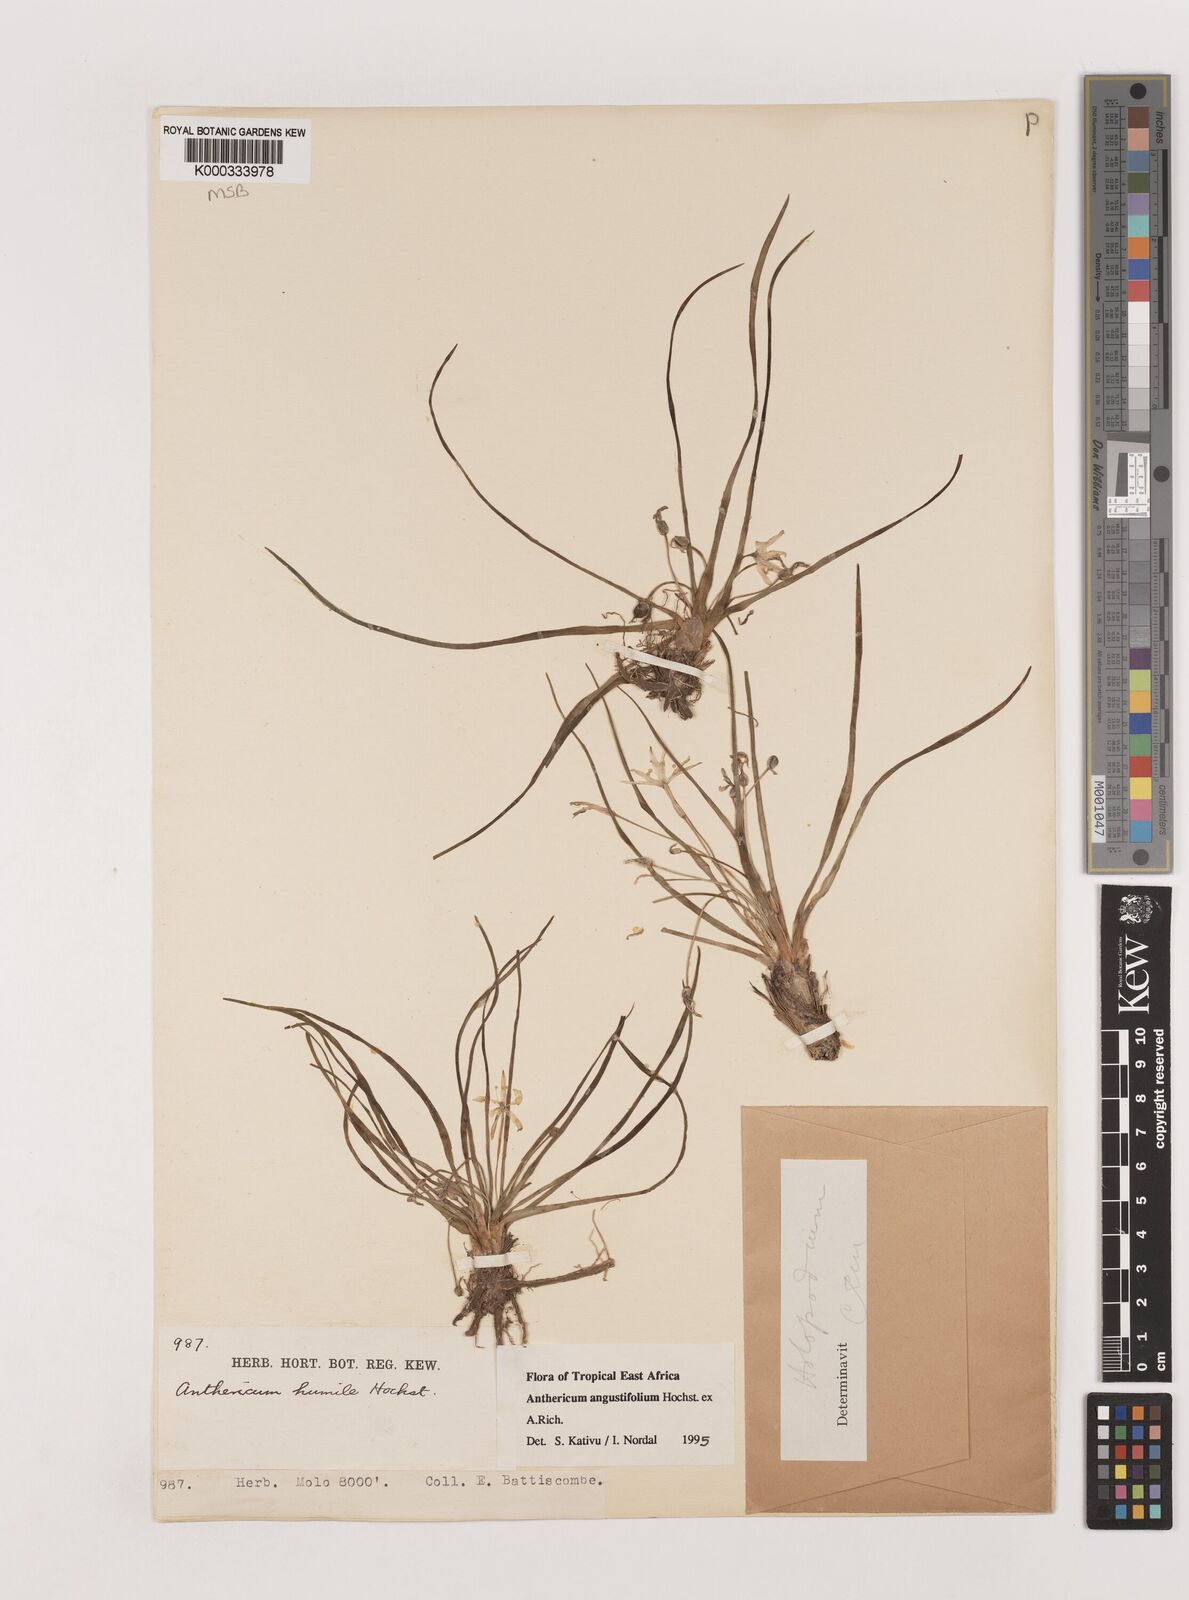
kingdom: Plantae
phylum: Tracheophyta
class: Liliopsida
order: Asparagales
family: Asparagaceae
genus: Anthericum
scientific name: Anthericum angustifolium
